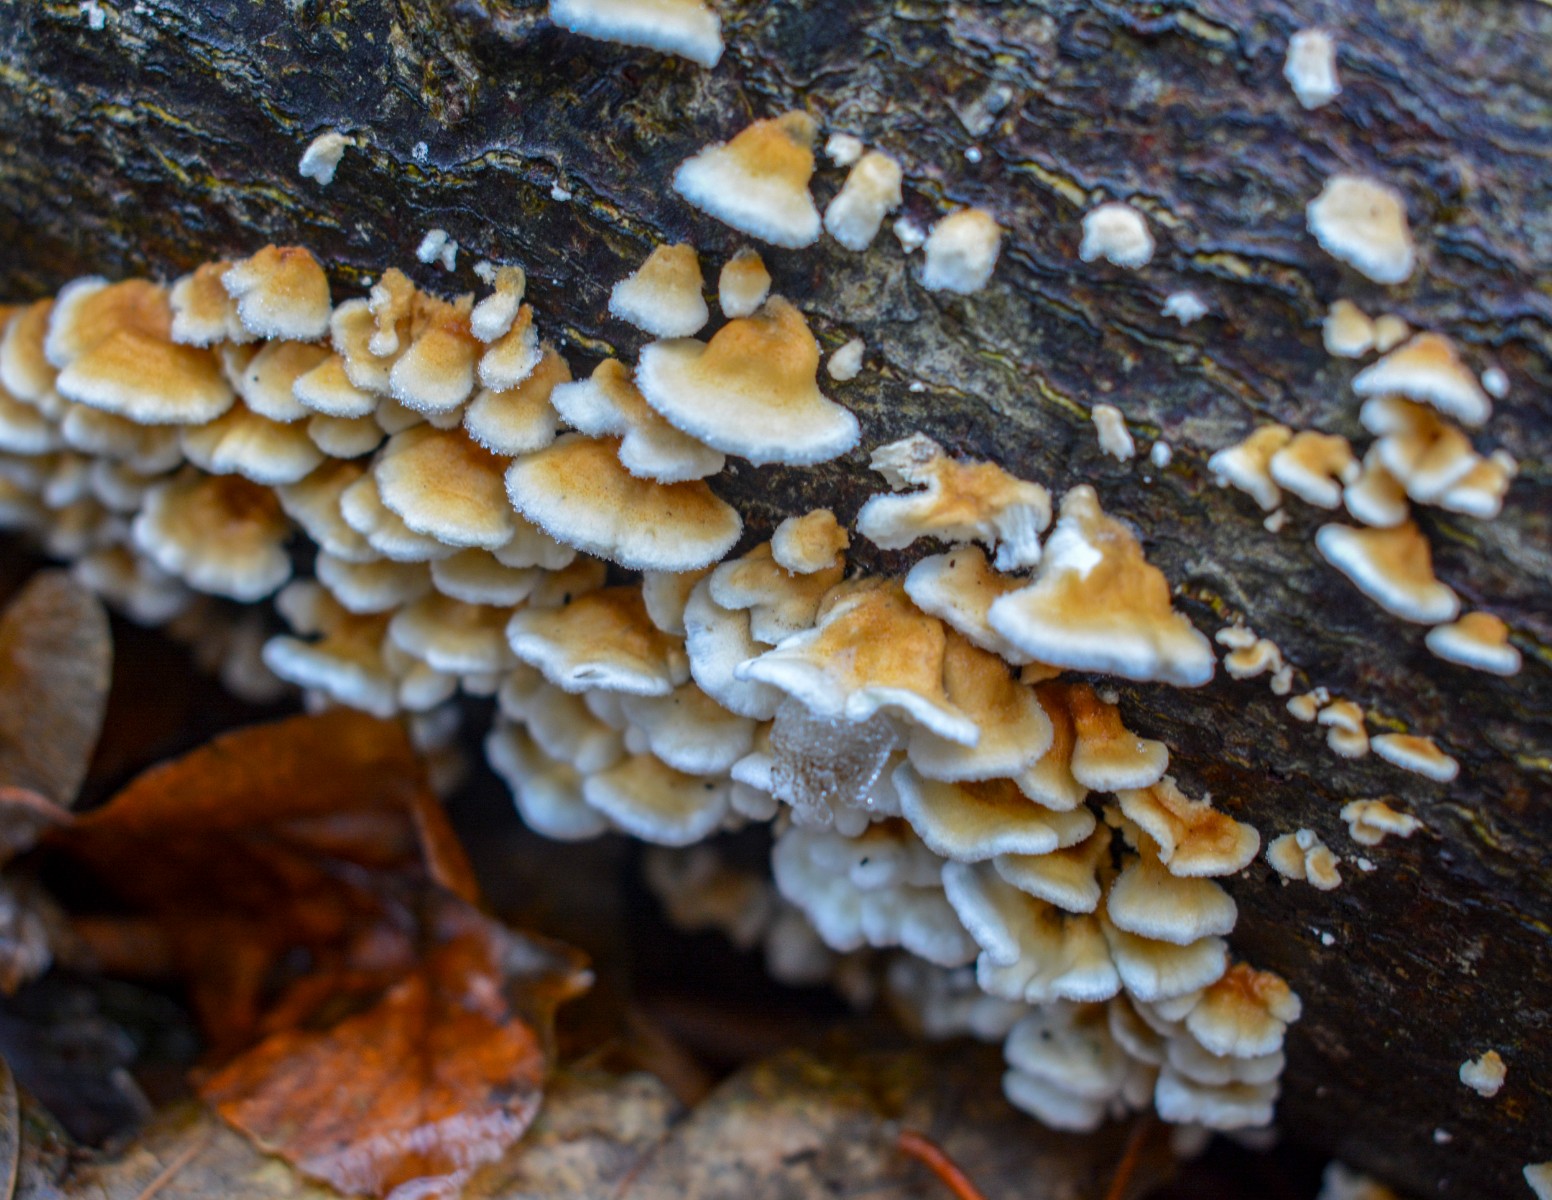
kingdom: Fungi
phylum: Basidiomycota
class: Agaricomycetes
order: Amylocorticiales
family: Amylocorticiaceae
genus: Plicaturopsis
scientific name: Plicaturopsis crispa
